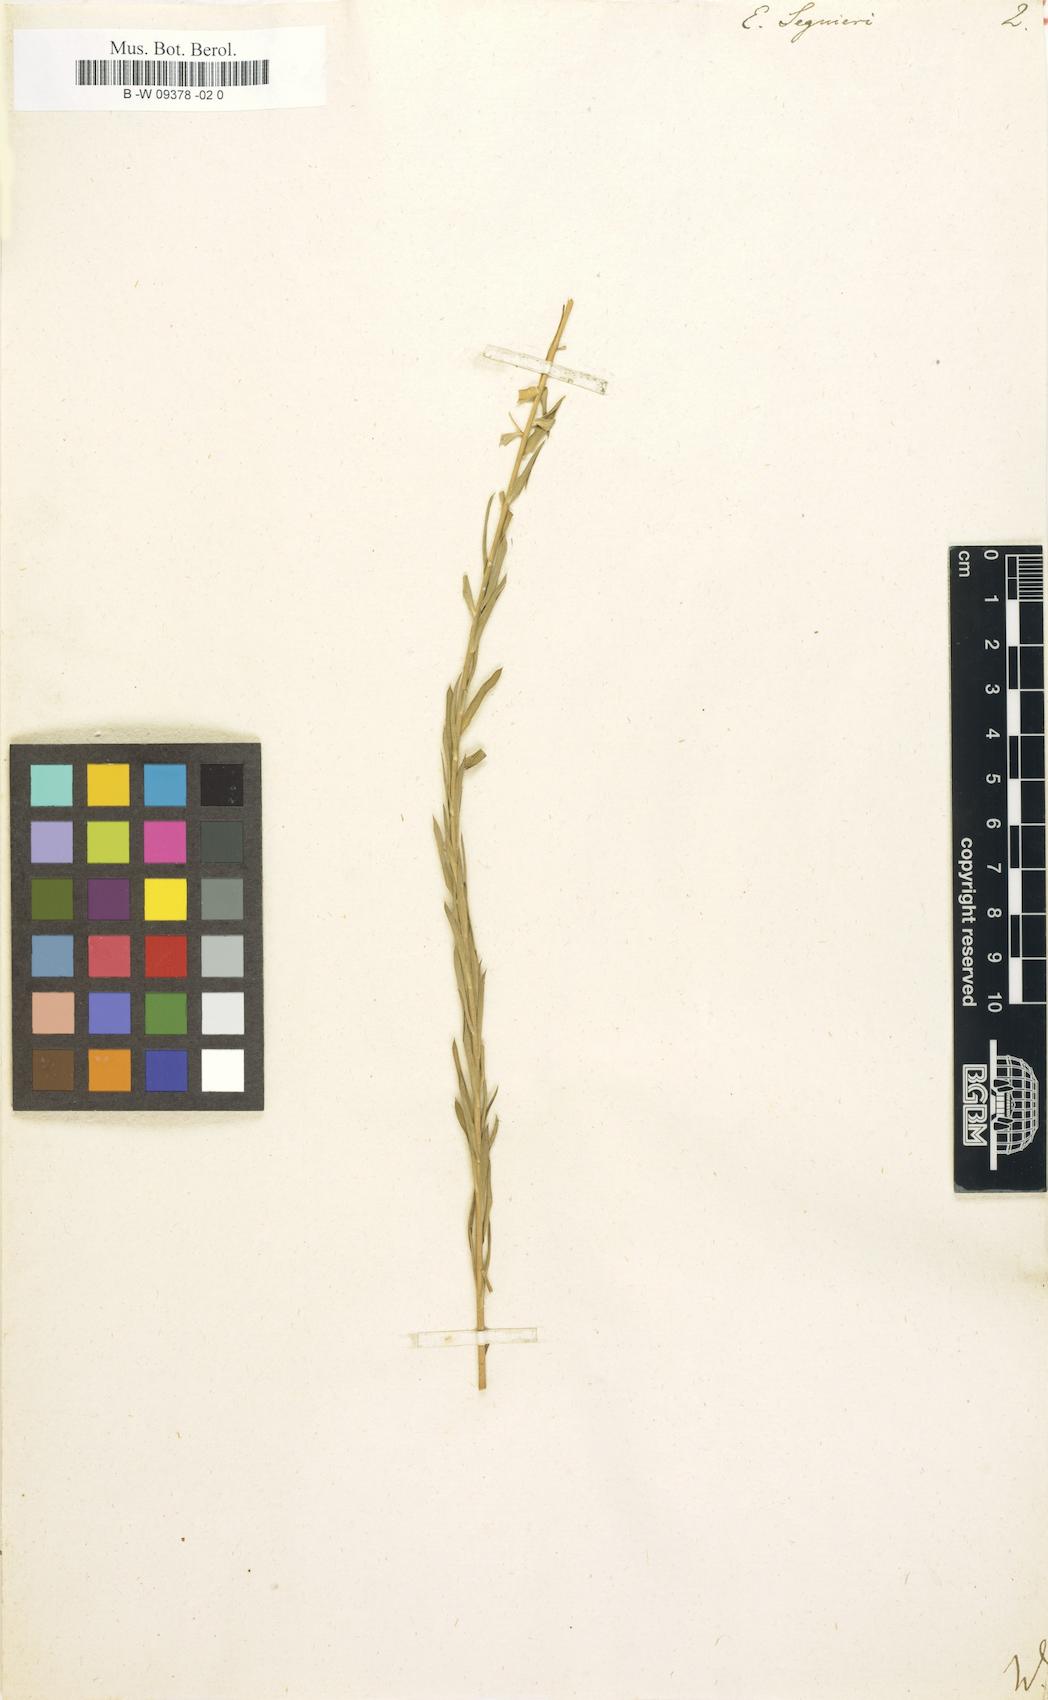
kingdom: Plantae
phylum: Tracheophyta
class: Magnoliopsida
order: Malpighiales
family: Euphorbiaceae
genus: Euphorbia
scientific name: Euphorbia seguieriana
